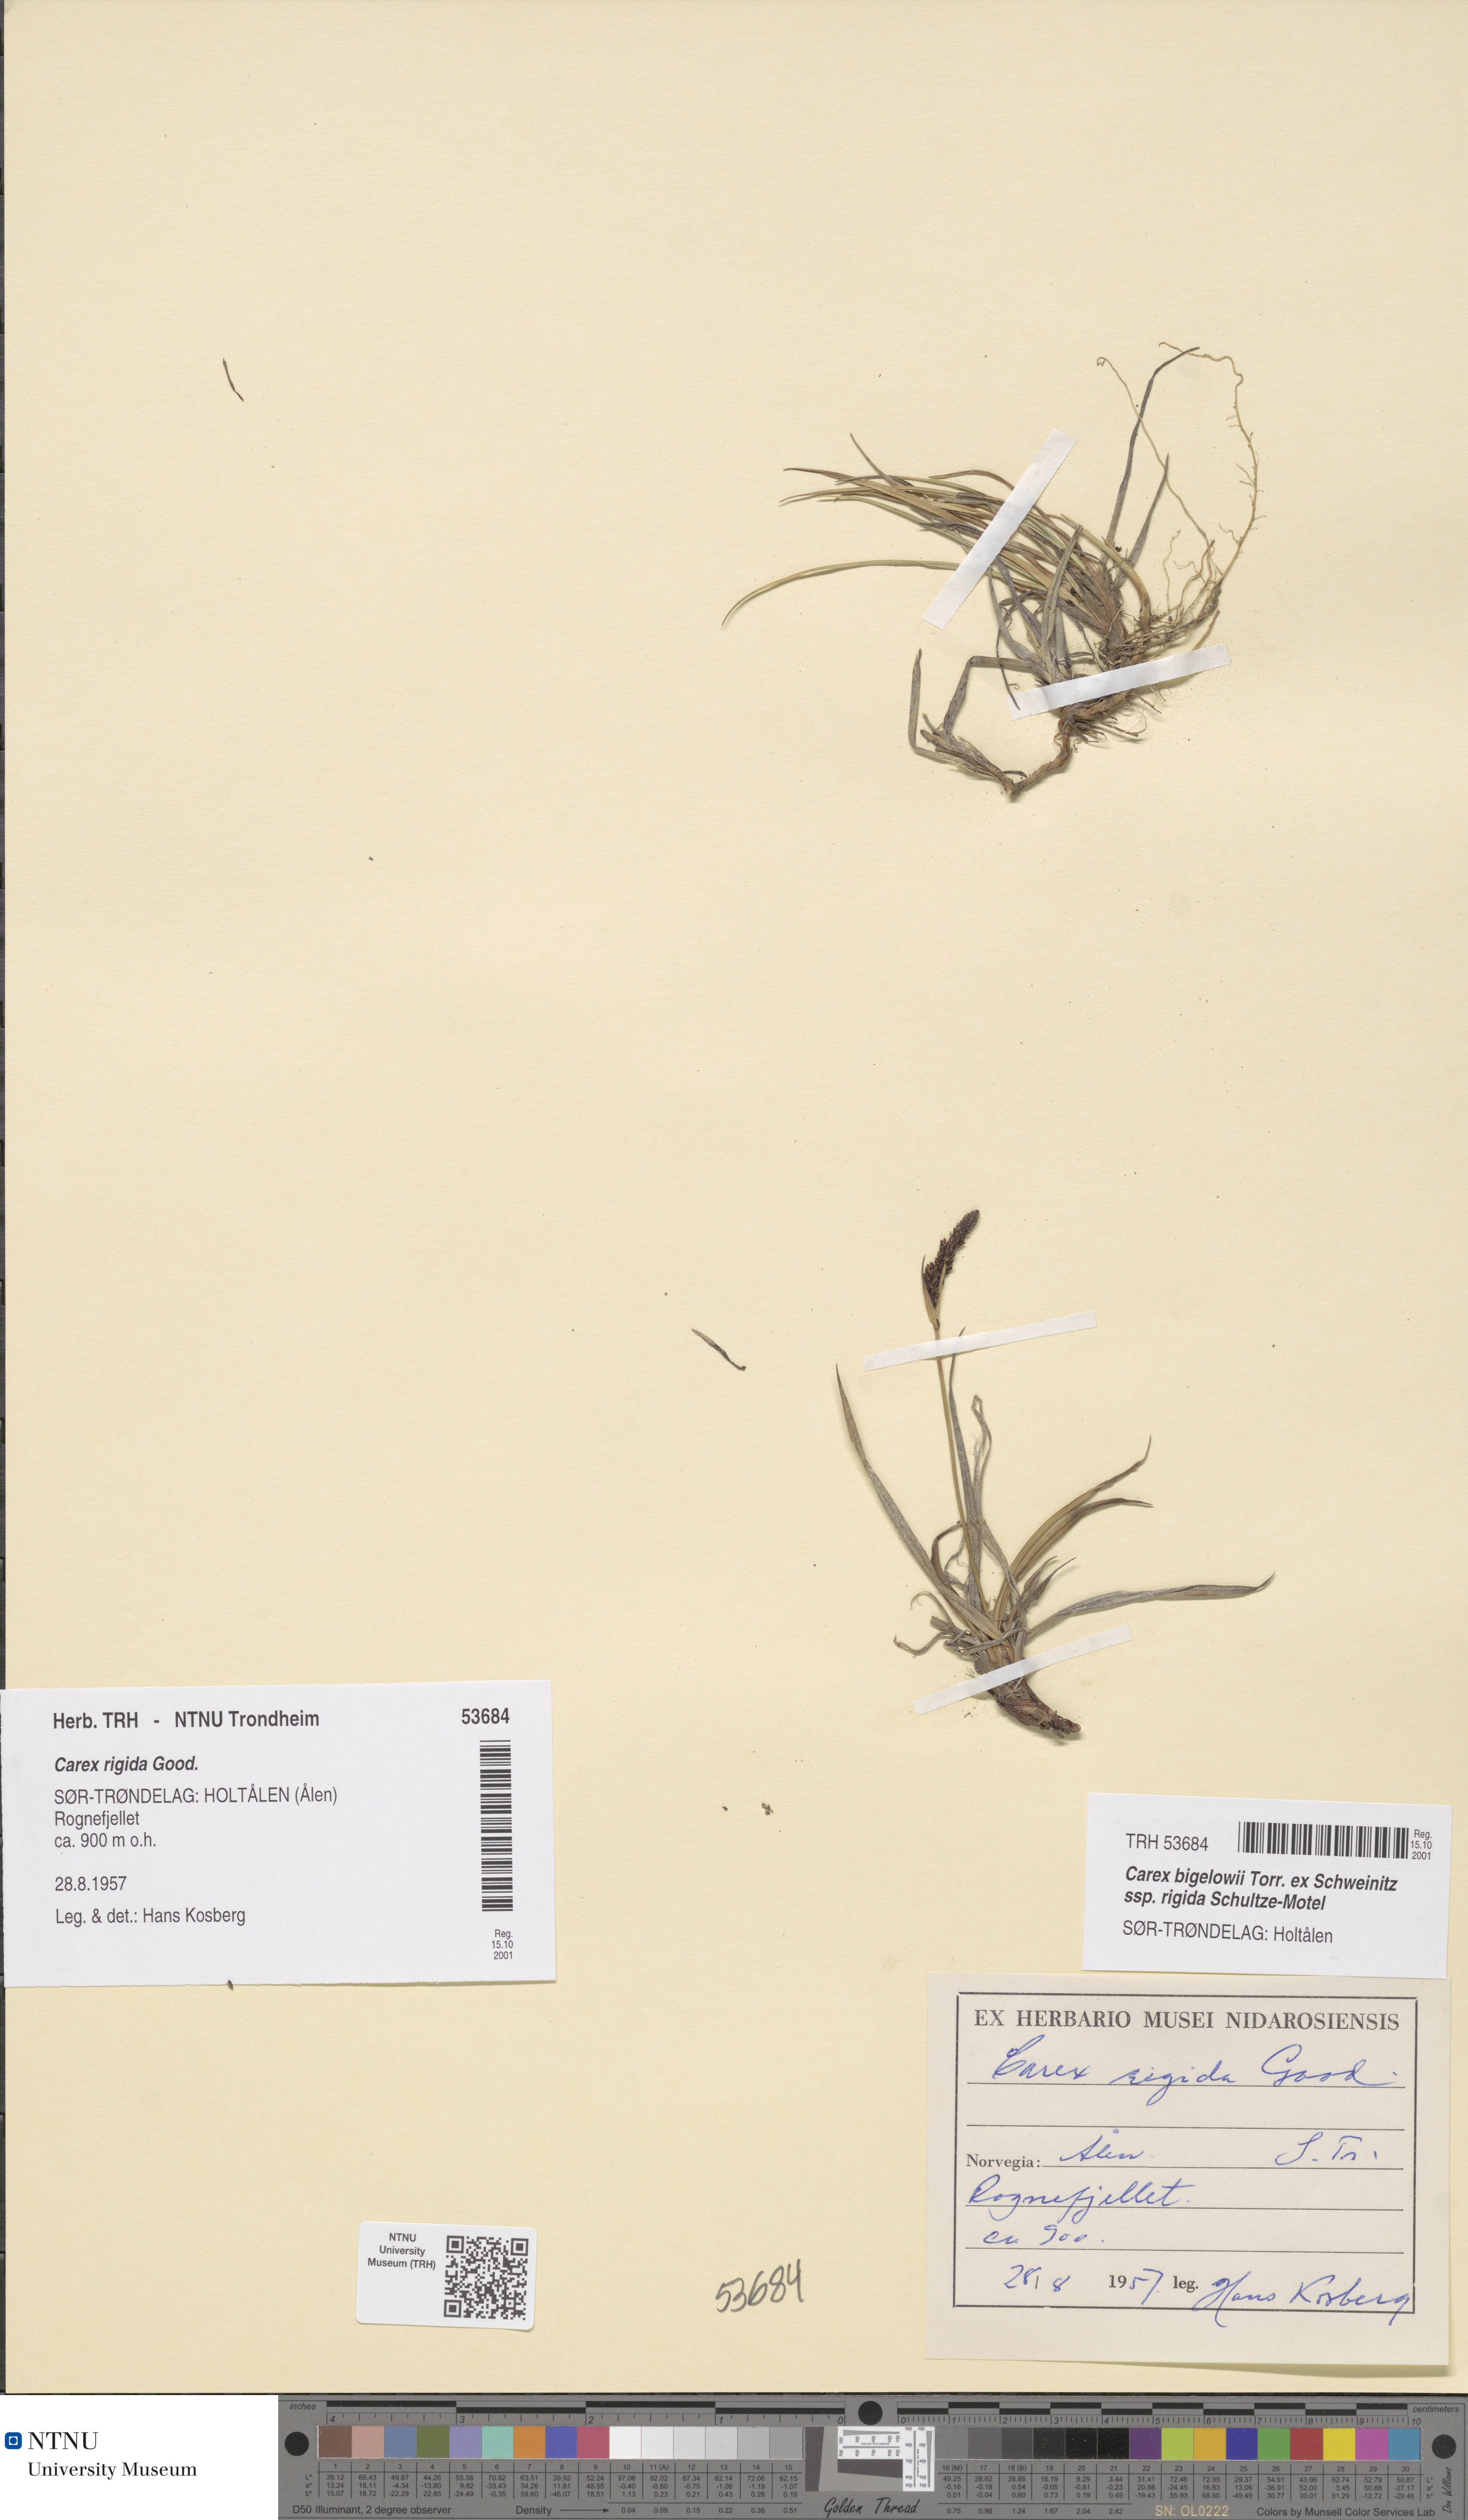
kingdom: Plantae
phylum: Tracheophyta
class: Liliopsida
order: Poales
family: Cyperaceae
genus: Carex
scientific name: Carex dacica
